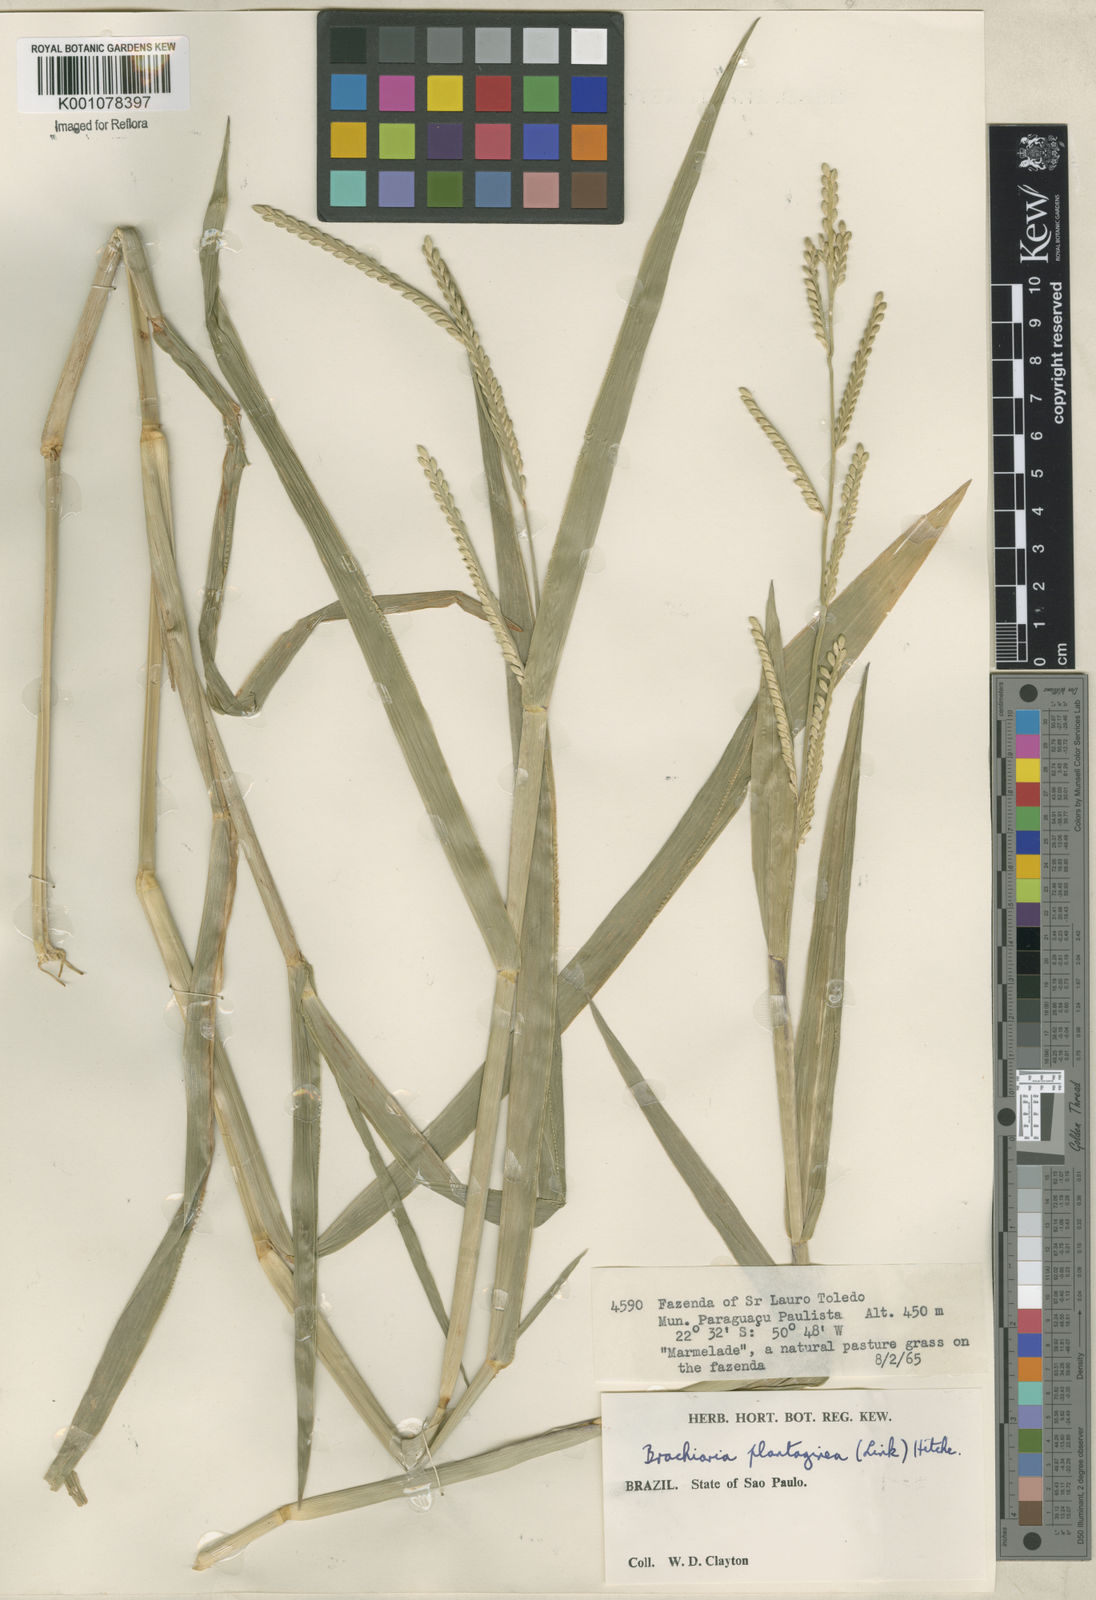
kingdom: Plantae
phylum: Tracheophyta
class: Liliopsida
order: Poales
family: Poaceae
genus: Urochloa
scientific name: Urochloa plantaginea
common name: Plantain signalgrass
